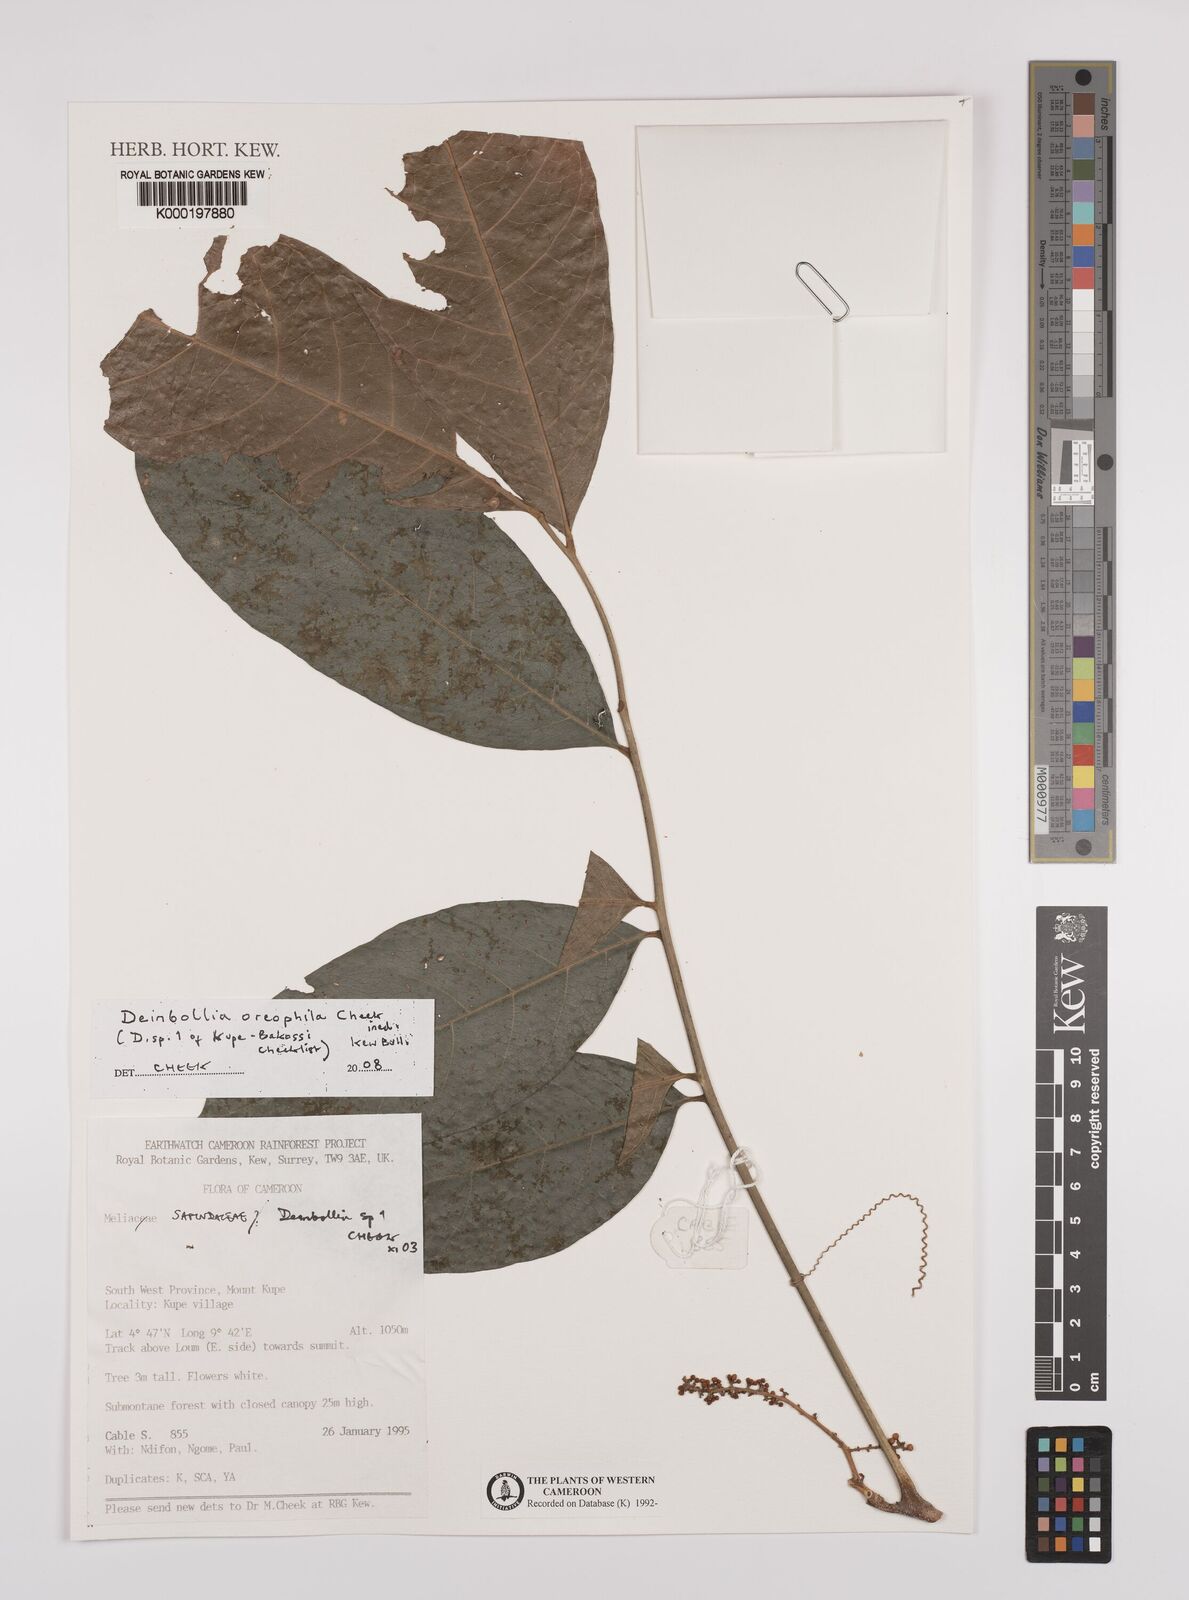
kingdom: Plantae
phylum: Tracheophyta
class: Magnoliopsida
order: Sapindales
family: Sapindaceae
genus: Deinbollia
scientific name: Deinbollia oreophila
